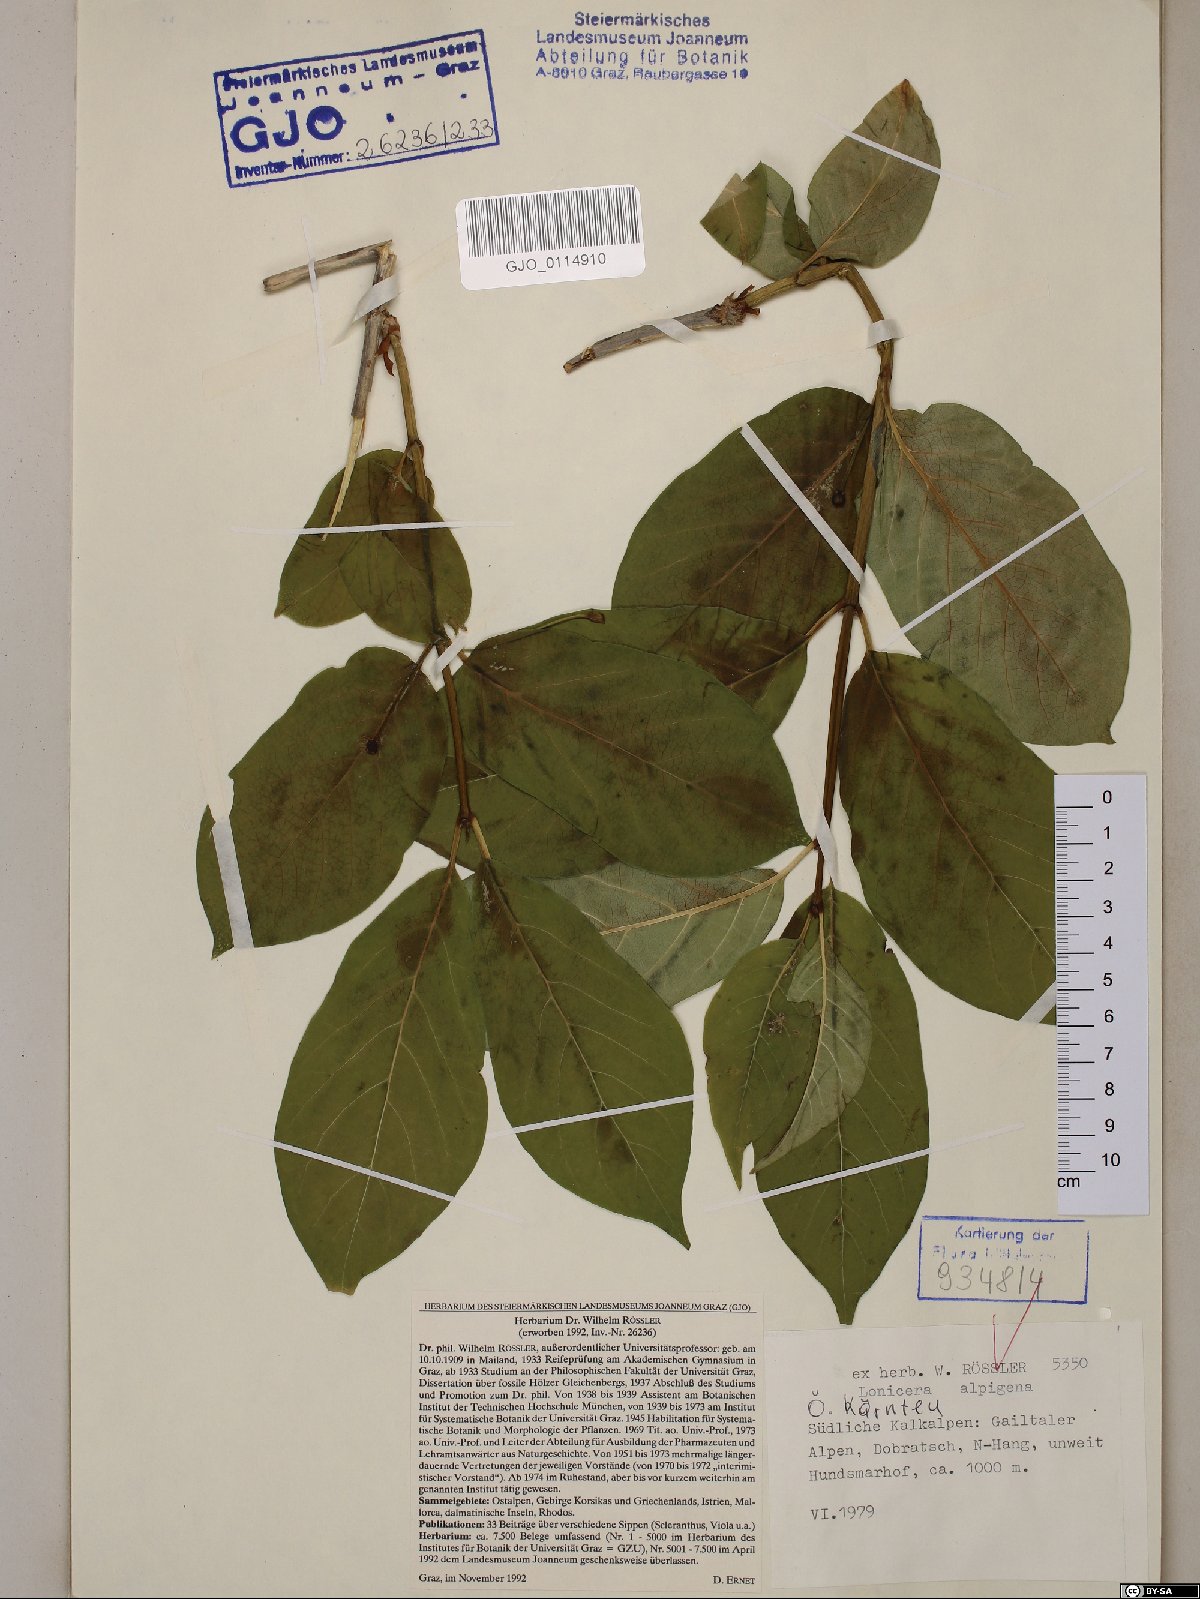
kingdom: Plantae
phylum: Tracheophyta
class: Magnoliopsida
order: Dipsacales
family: Caprifoliaceae
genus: Lonicera
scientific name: Lonicera alpigena
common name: Alpine honeysuckle
